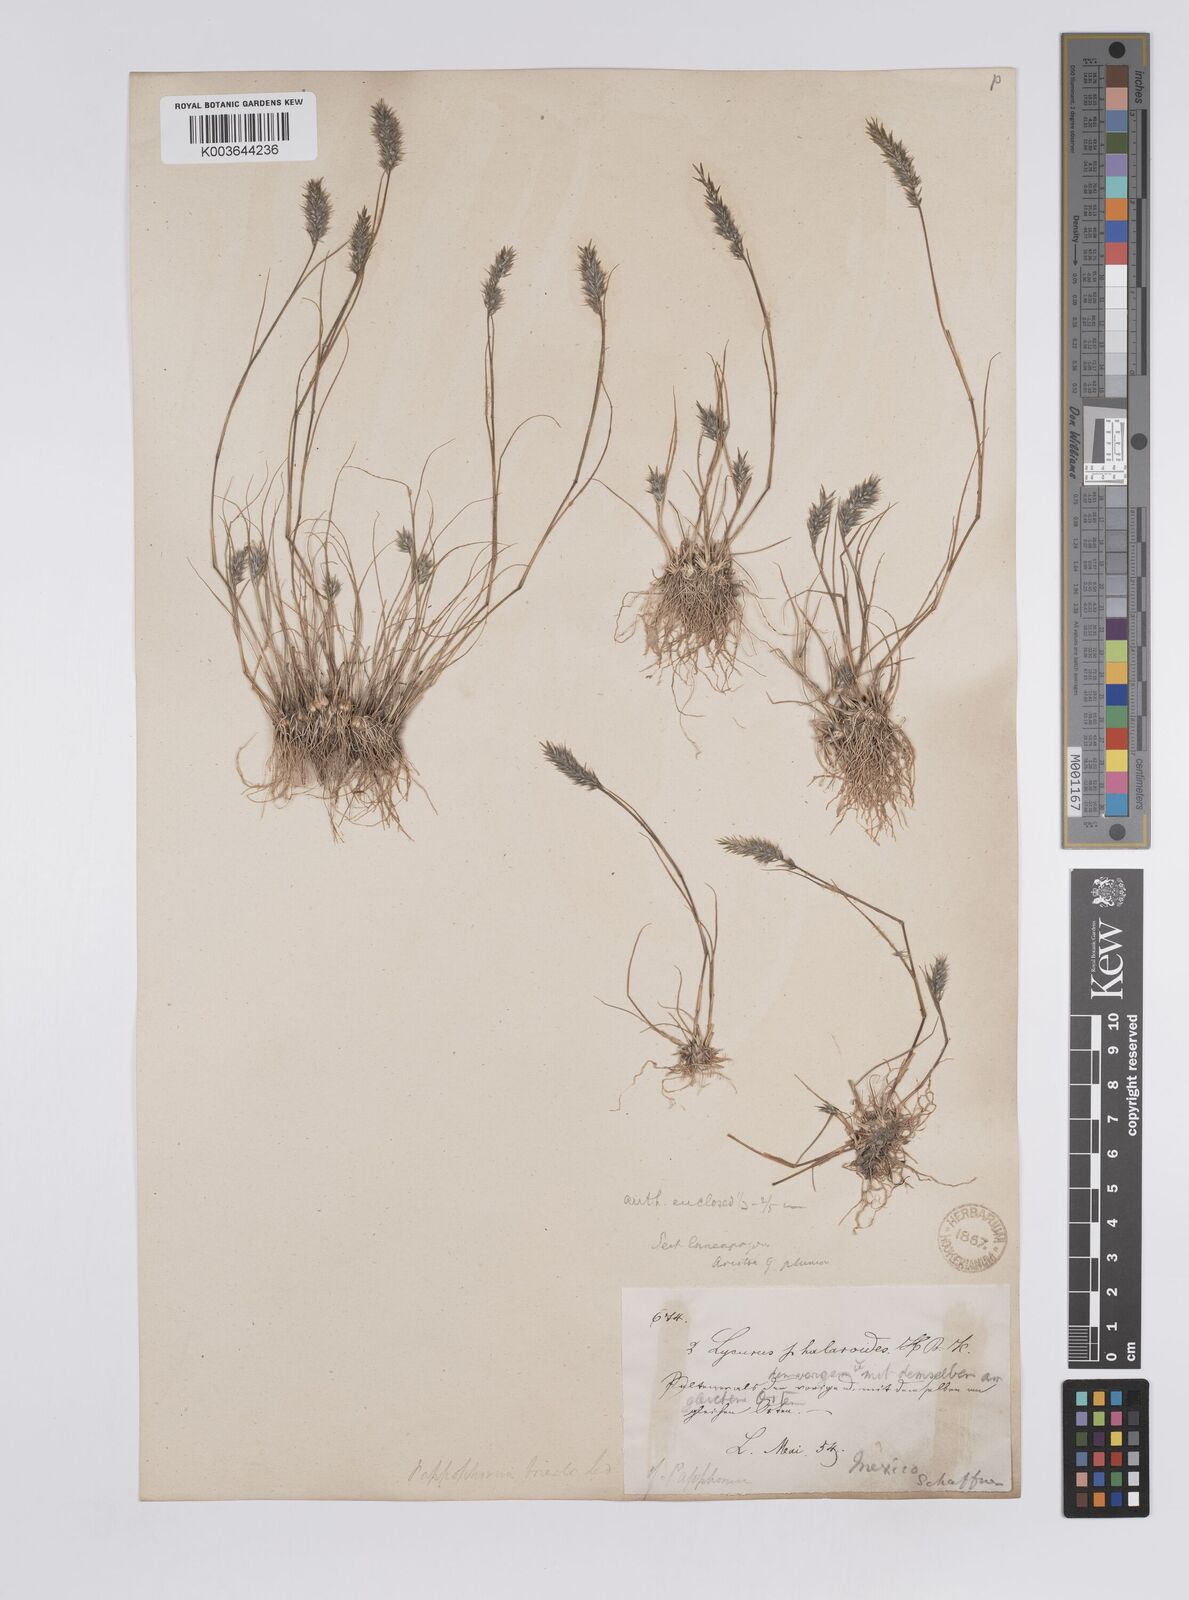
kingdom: Plantae
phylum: Tracheophyta
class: Liliopsida
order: Poales
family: Poaceae
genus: Enneapogon
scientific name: Enneapogon desvauxii
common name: Feather pappus grass
